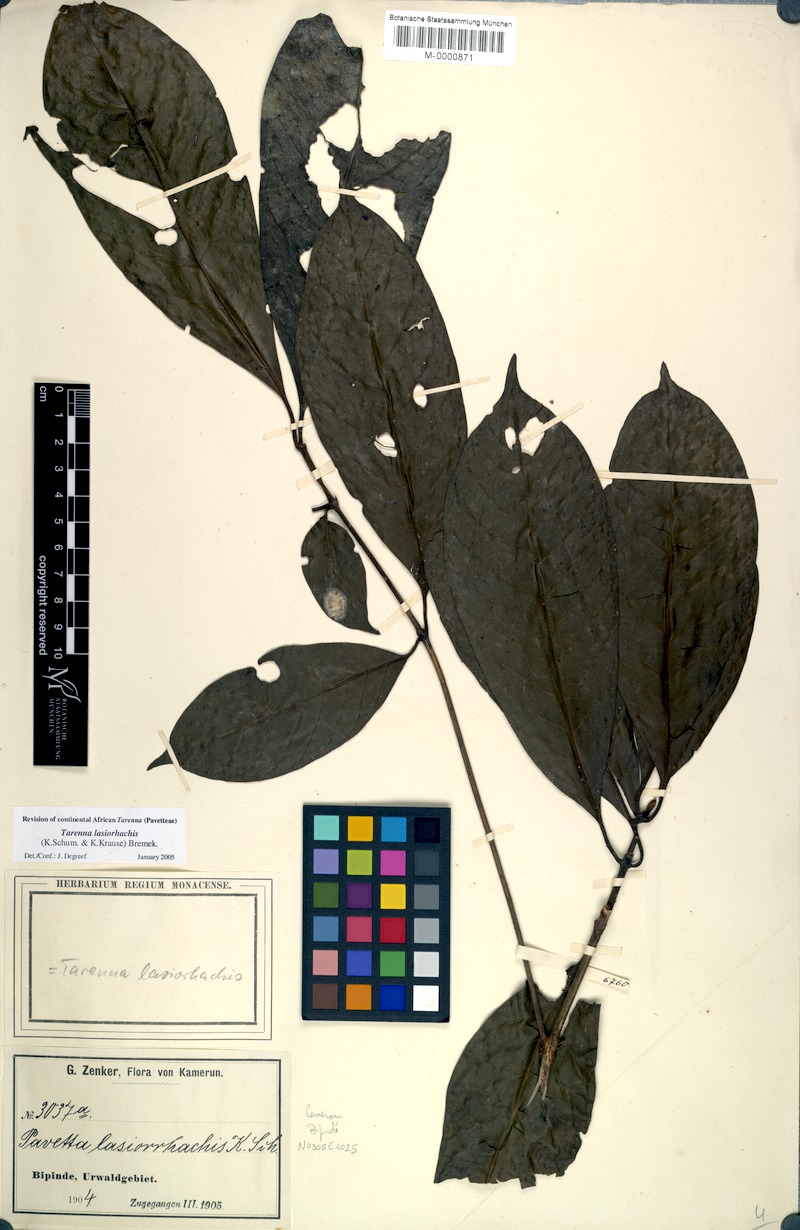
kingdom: Plantae
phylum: Tracheophyta
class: Magnoliopsida
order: Gentianales
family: Rubiaceae
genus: Tarenna
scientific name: Tarenna lasiorhachis
